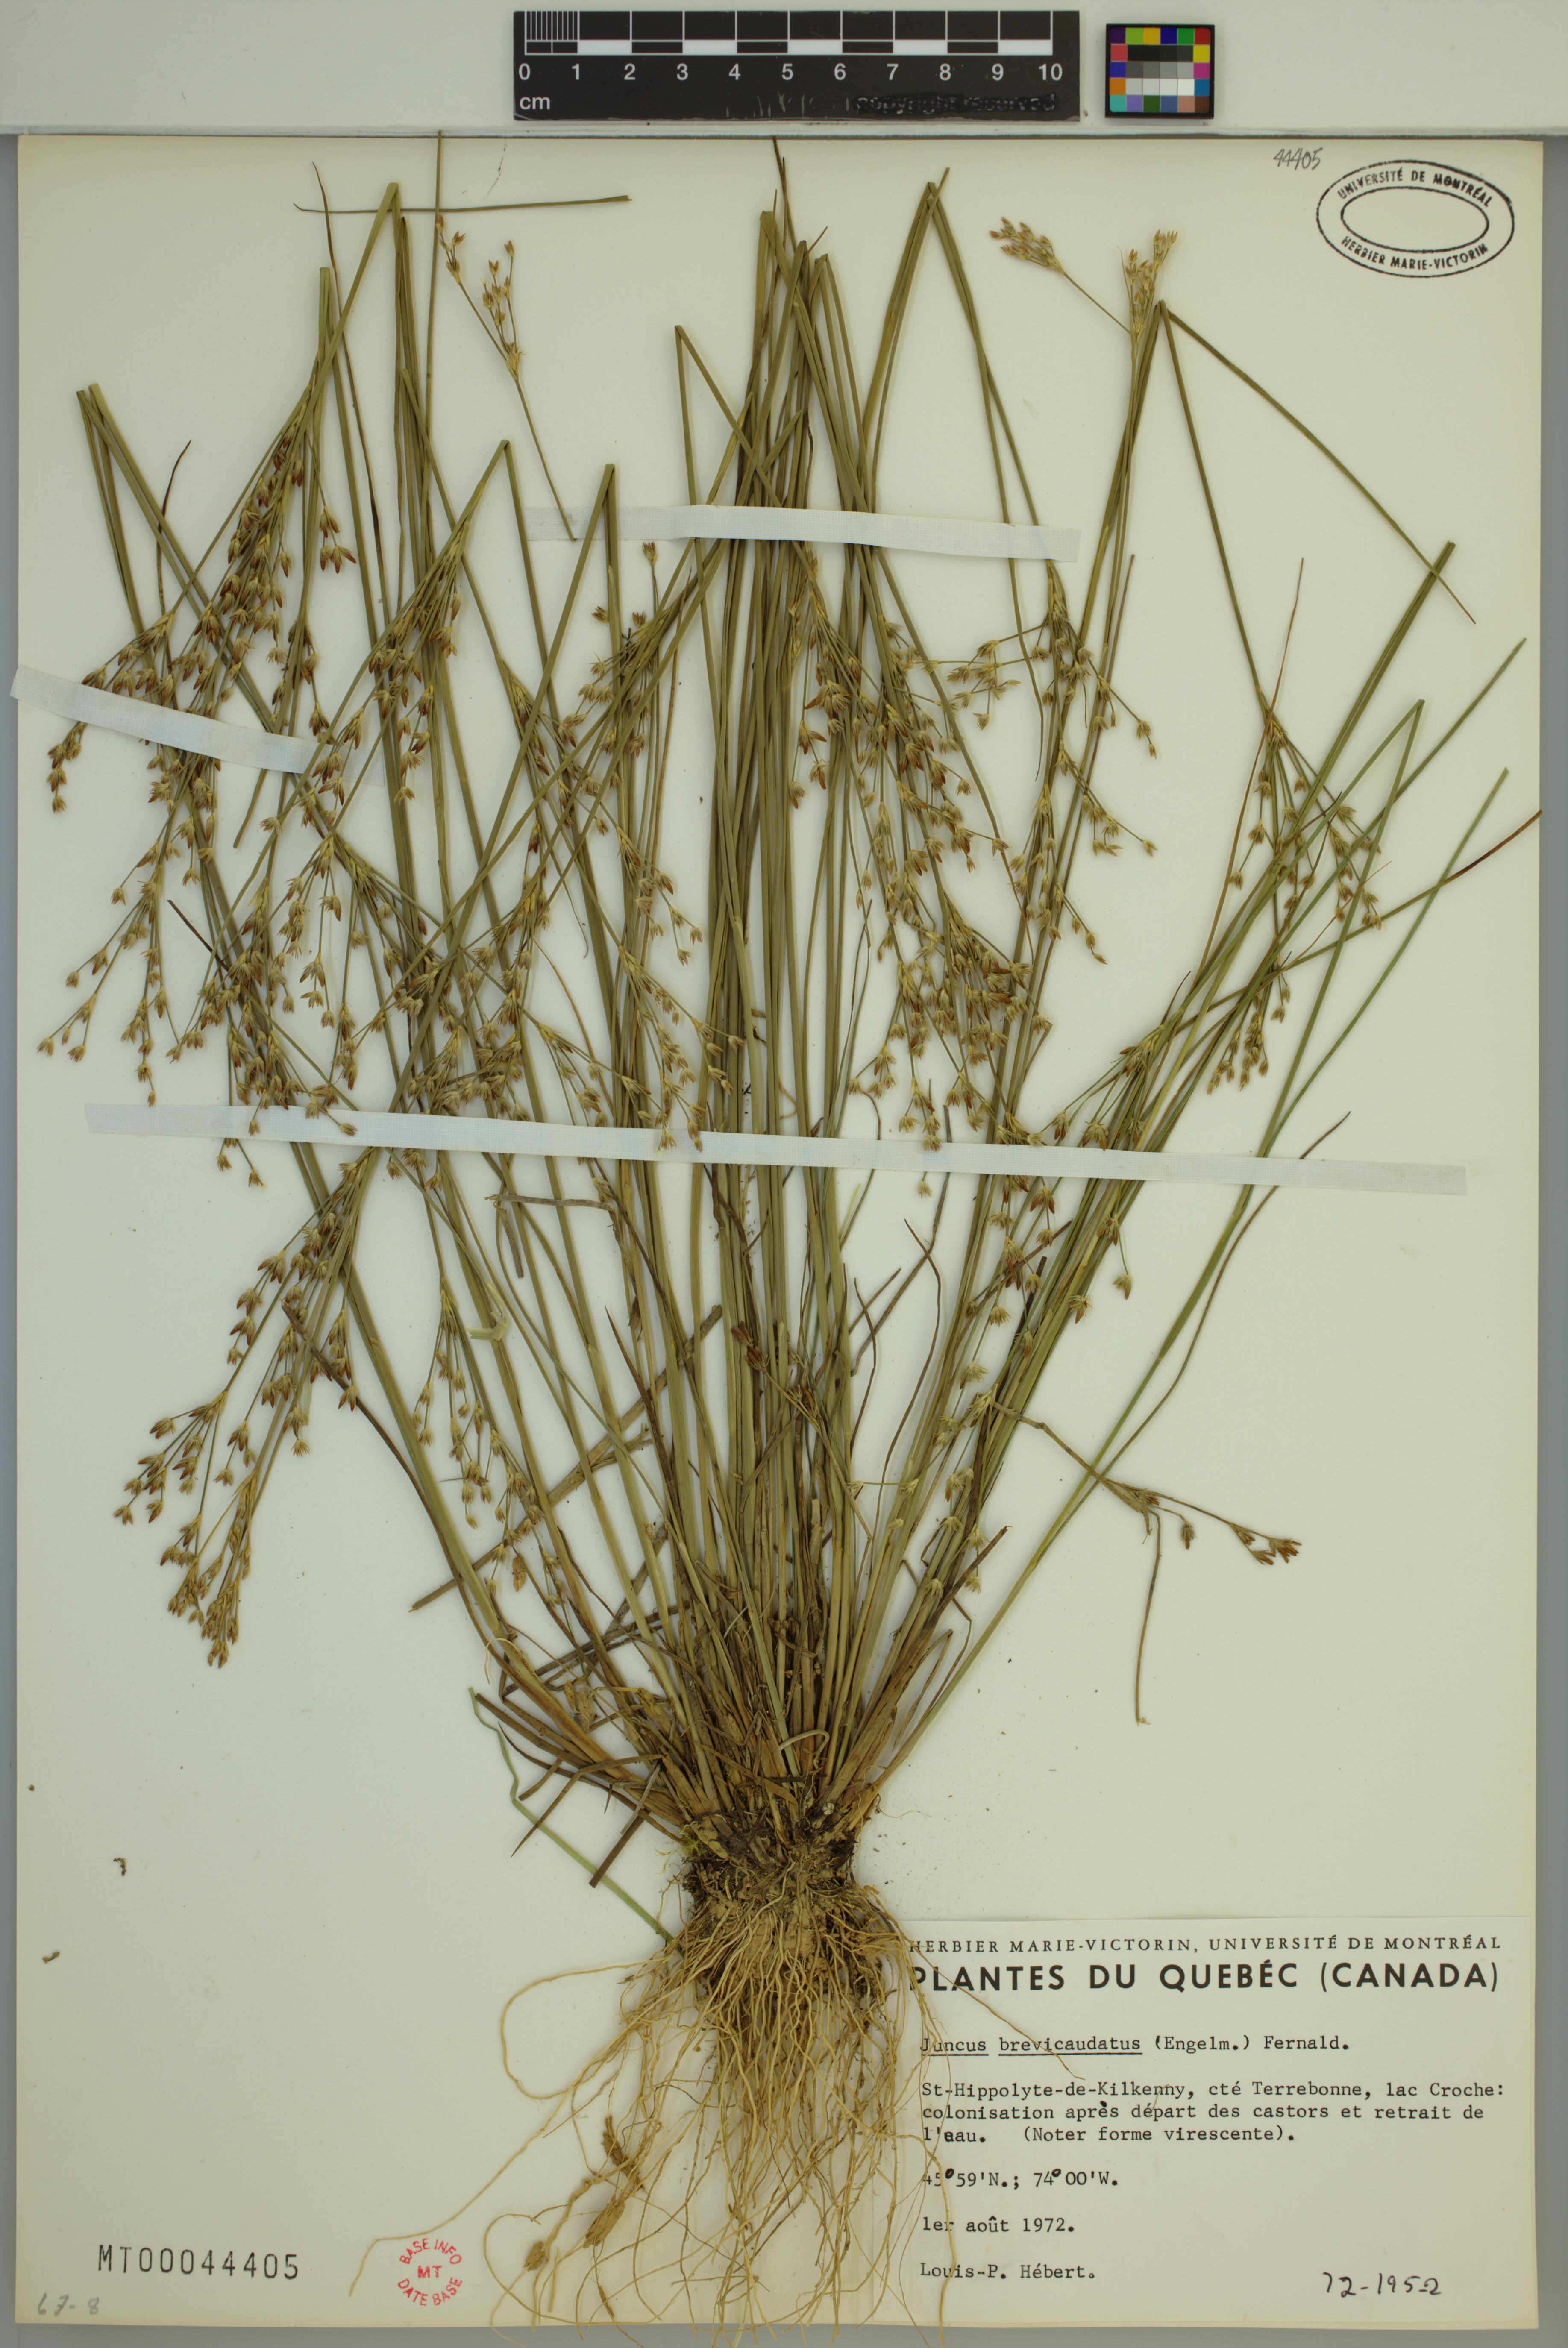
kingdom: Plantae
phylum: Tracheophyta
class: Liliopsida
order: Poales
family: Juncaceae
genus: Juncus
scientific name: Juncus brevicaudatus
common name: Narrow-panicle rush
